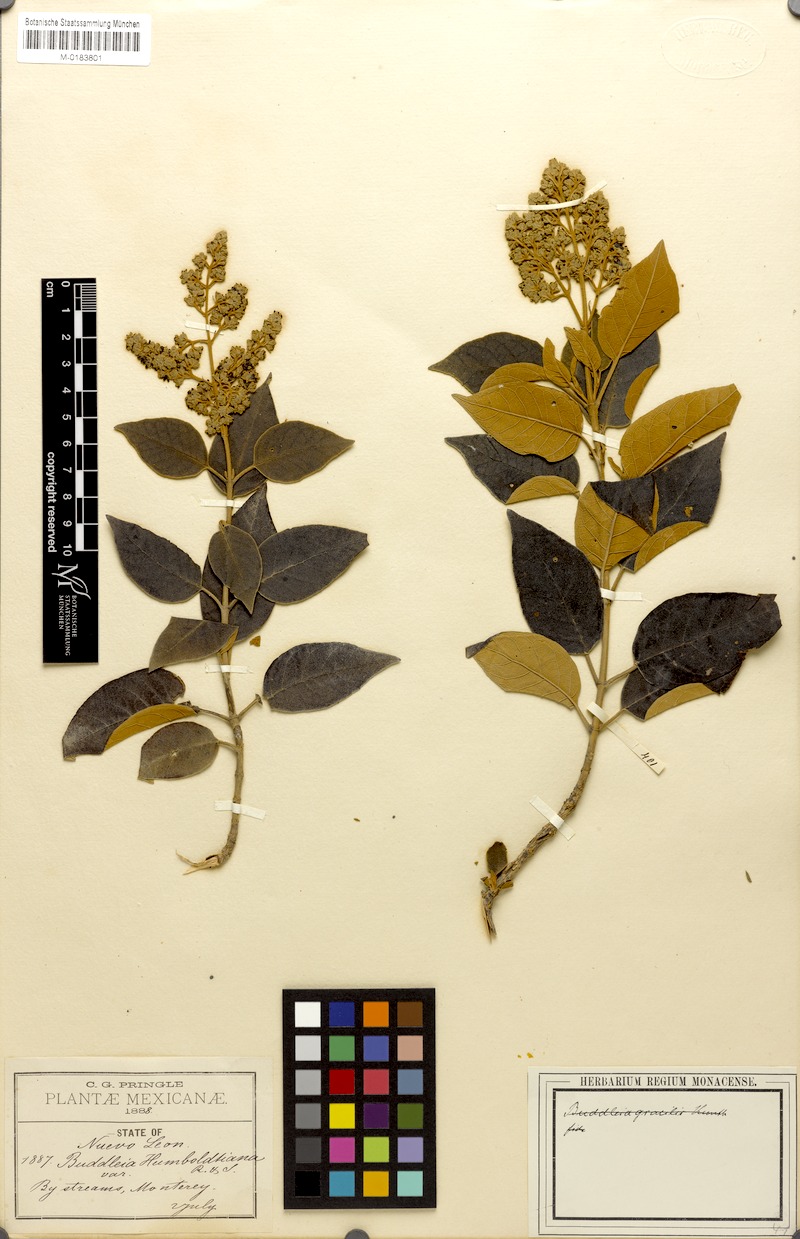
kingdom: Plantae
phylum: Tracheophyta
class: Magnoliopsida
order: Lamiales
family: Scrophulariaceae
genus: Buddleja
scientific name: Buddleja cordata
